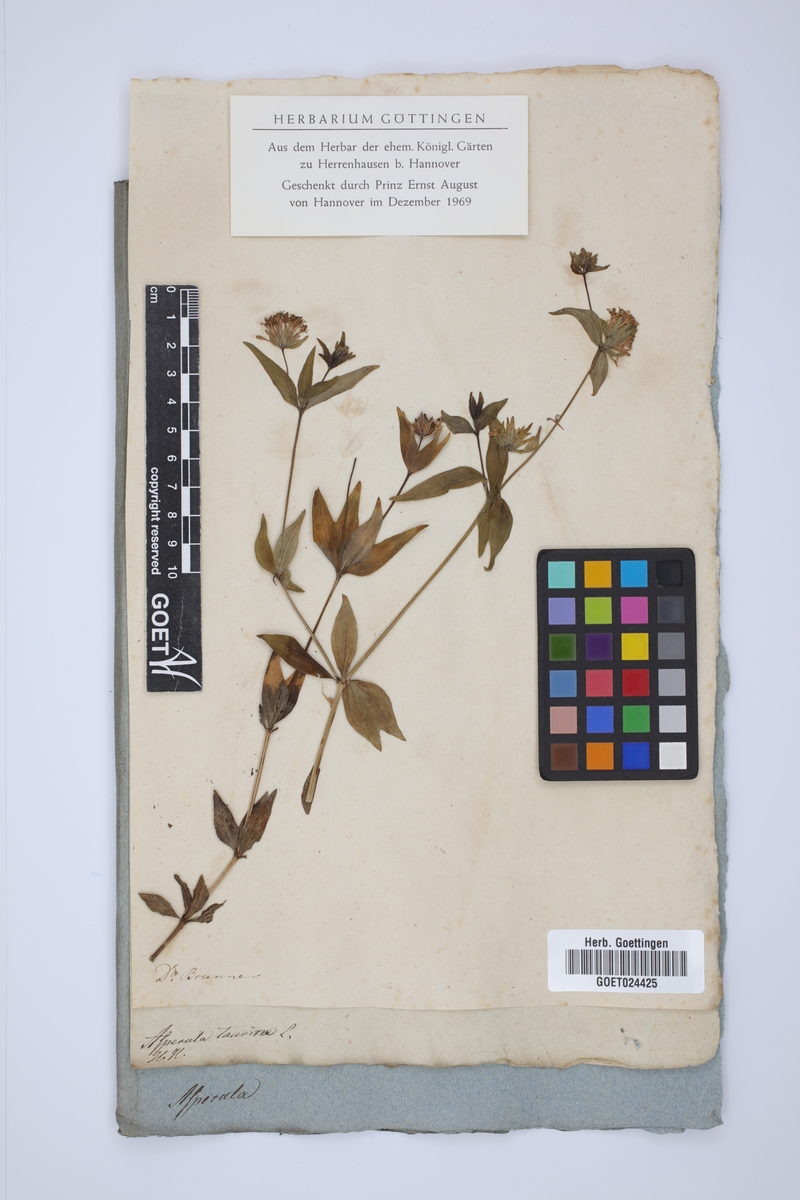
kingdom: Plantae
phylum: Tracheophyta
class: Magnoliopsida
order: Gentianales
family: Rubiaceae
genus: Asperula
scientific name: Asperula taurina
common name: Pink woodruff
